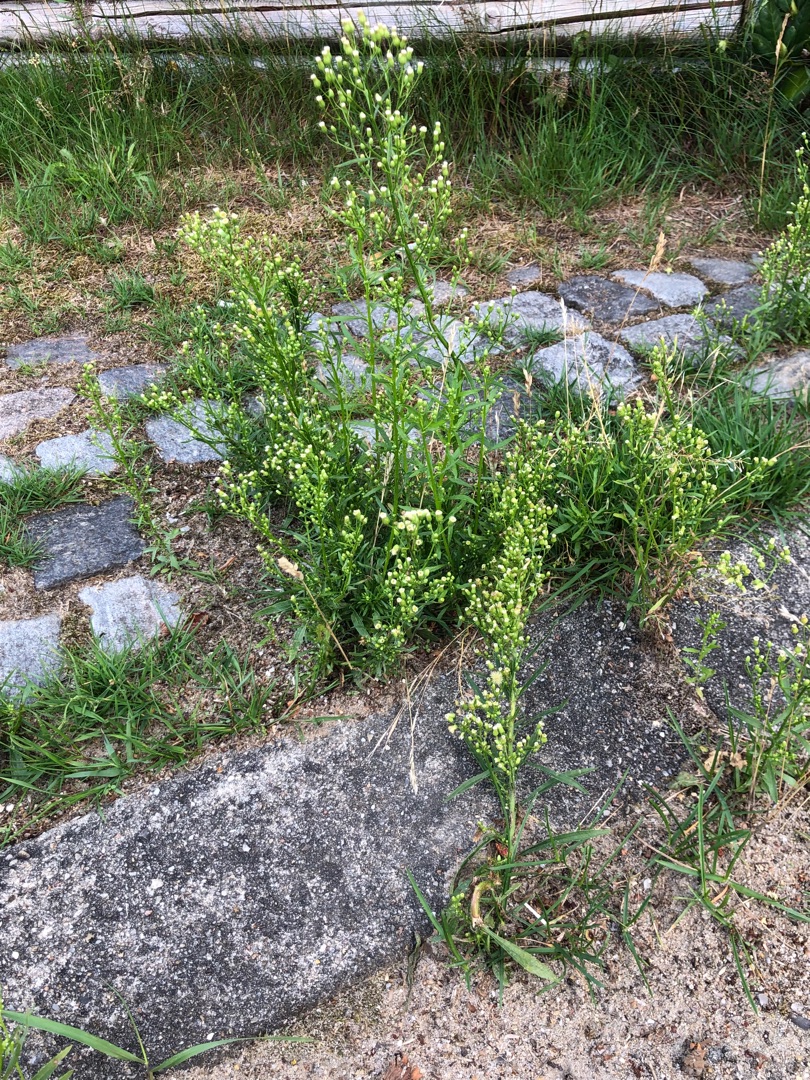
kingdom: Plantae
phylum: Tracheophyta
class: Magnoliopsida
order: Asterales
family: Asteraceae
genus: Erigeron
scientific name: Erigeron canadensis
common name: Kanadisk bakkestjerne
